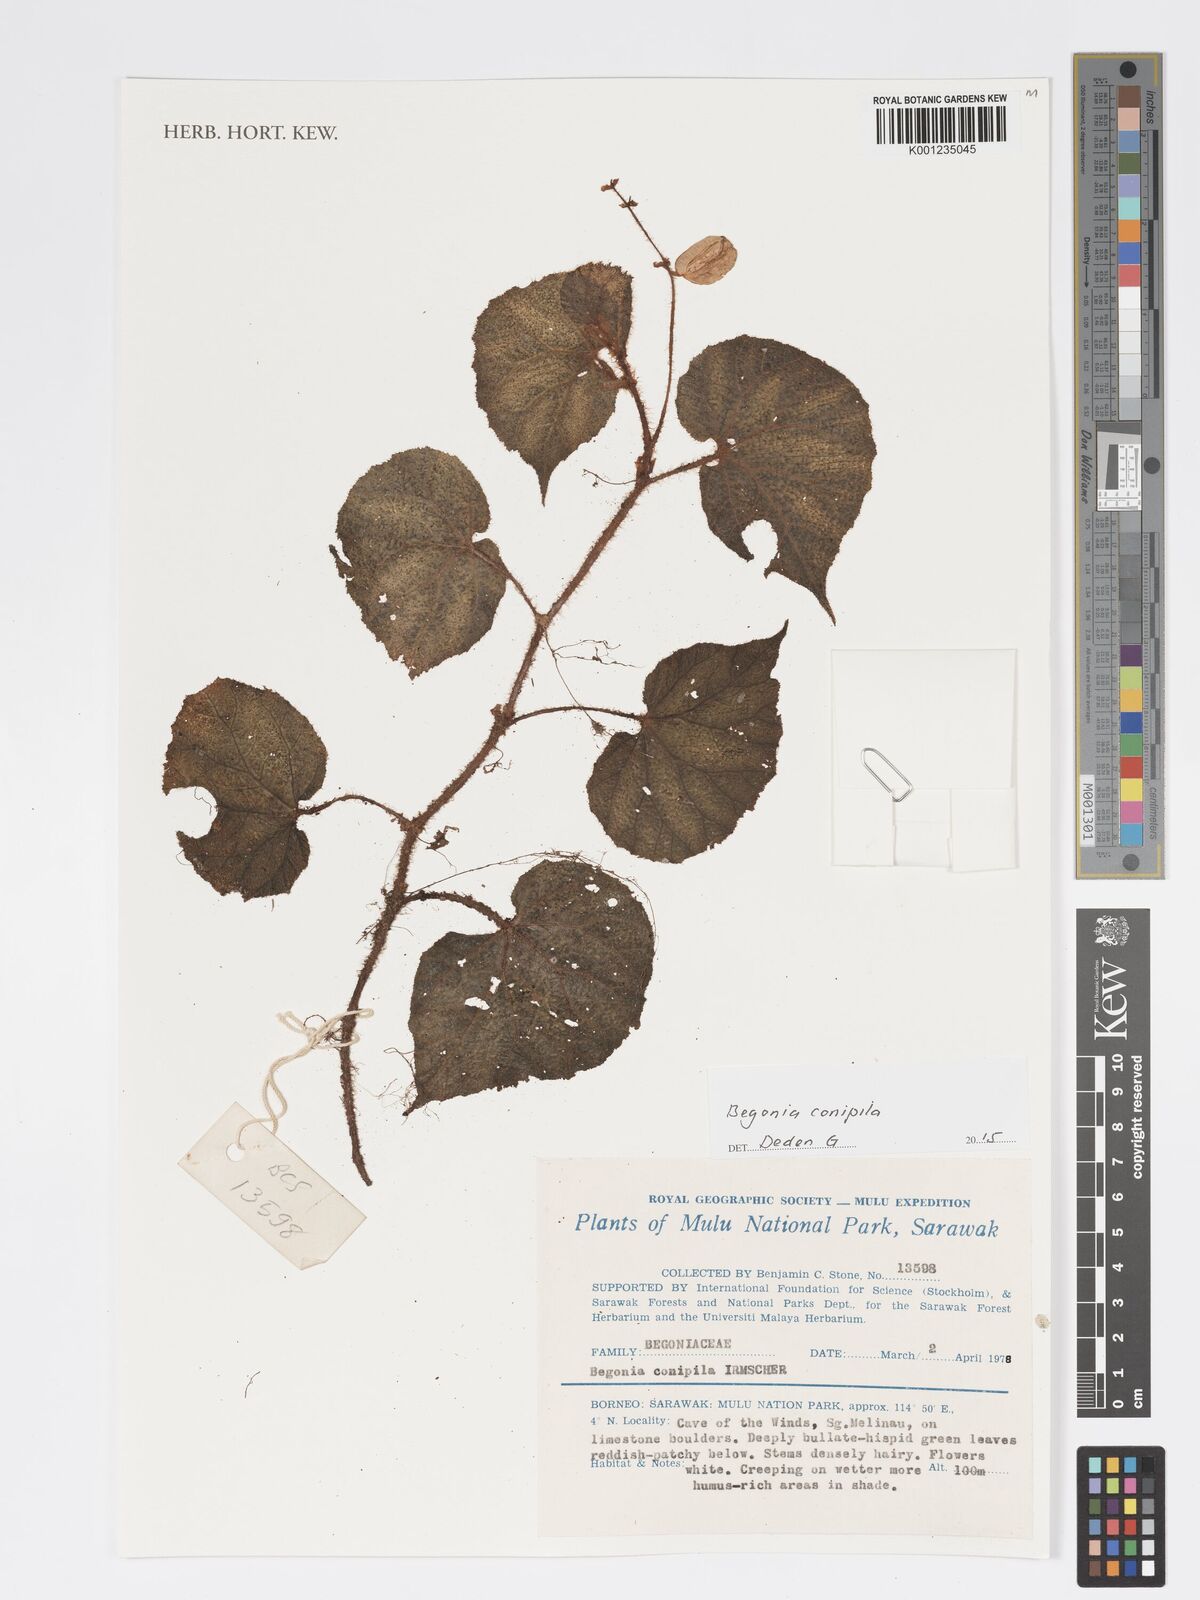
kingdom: Plantae
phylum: Tracheophyta
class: Magnoliopsida
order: Cucurbitales
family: Begoniaceae
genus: Begonia
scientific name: Begonia conipila
